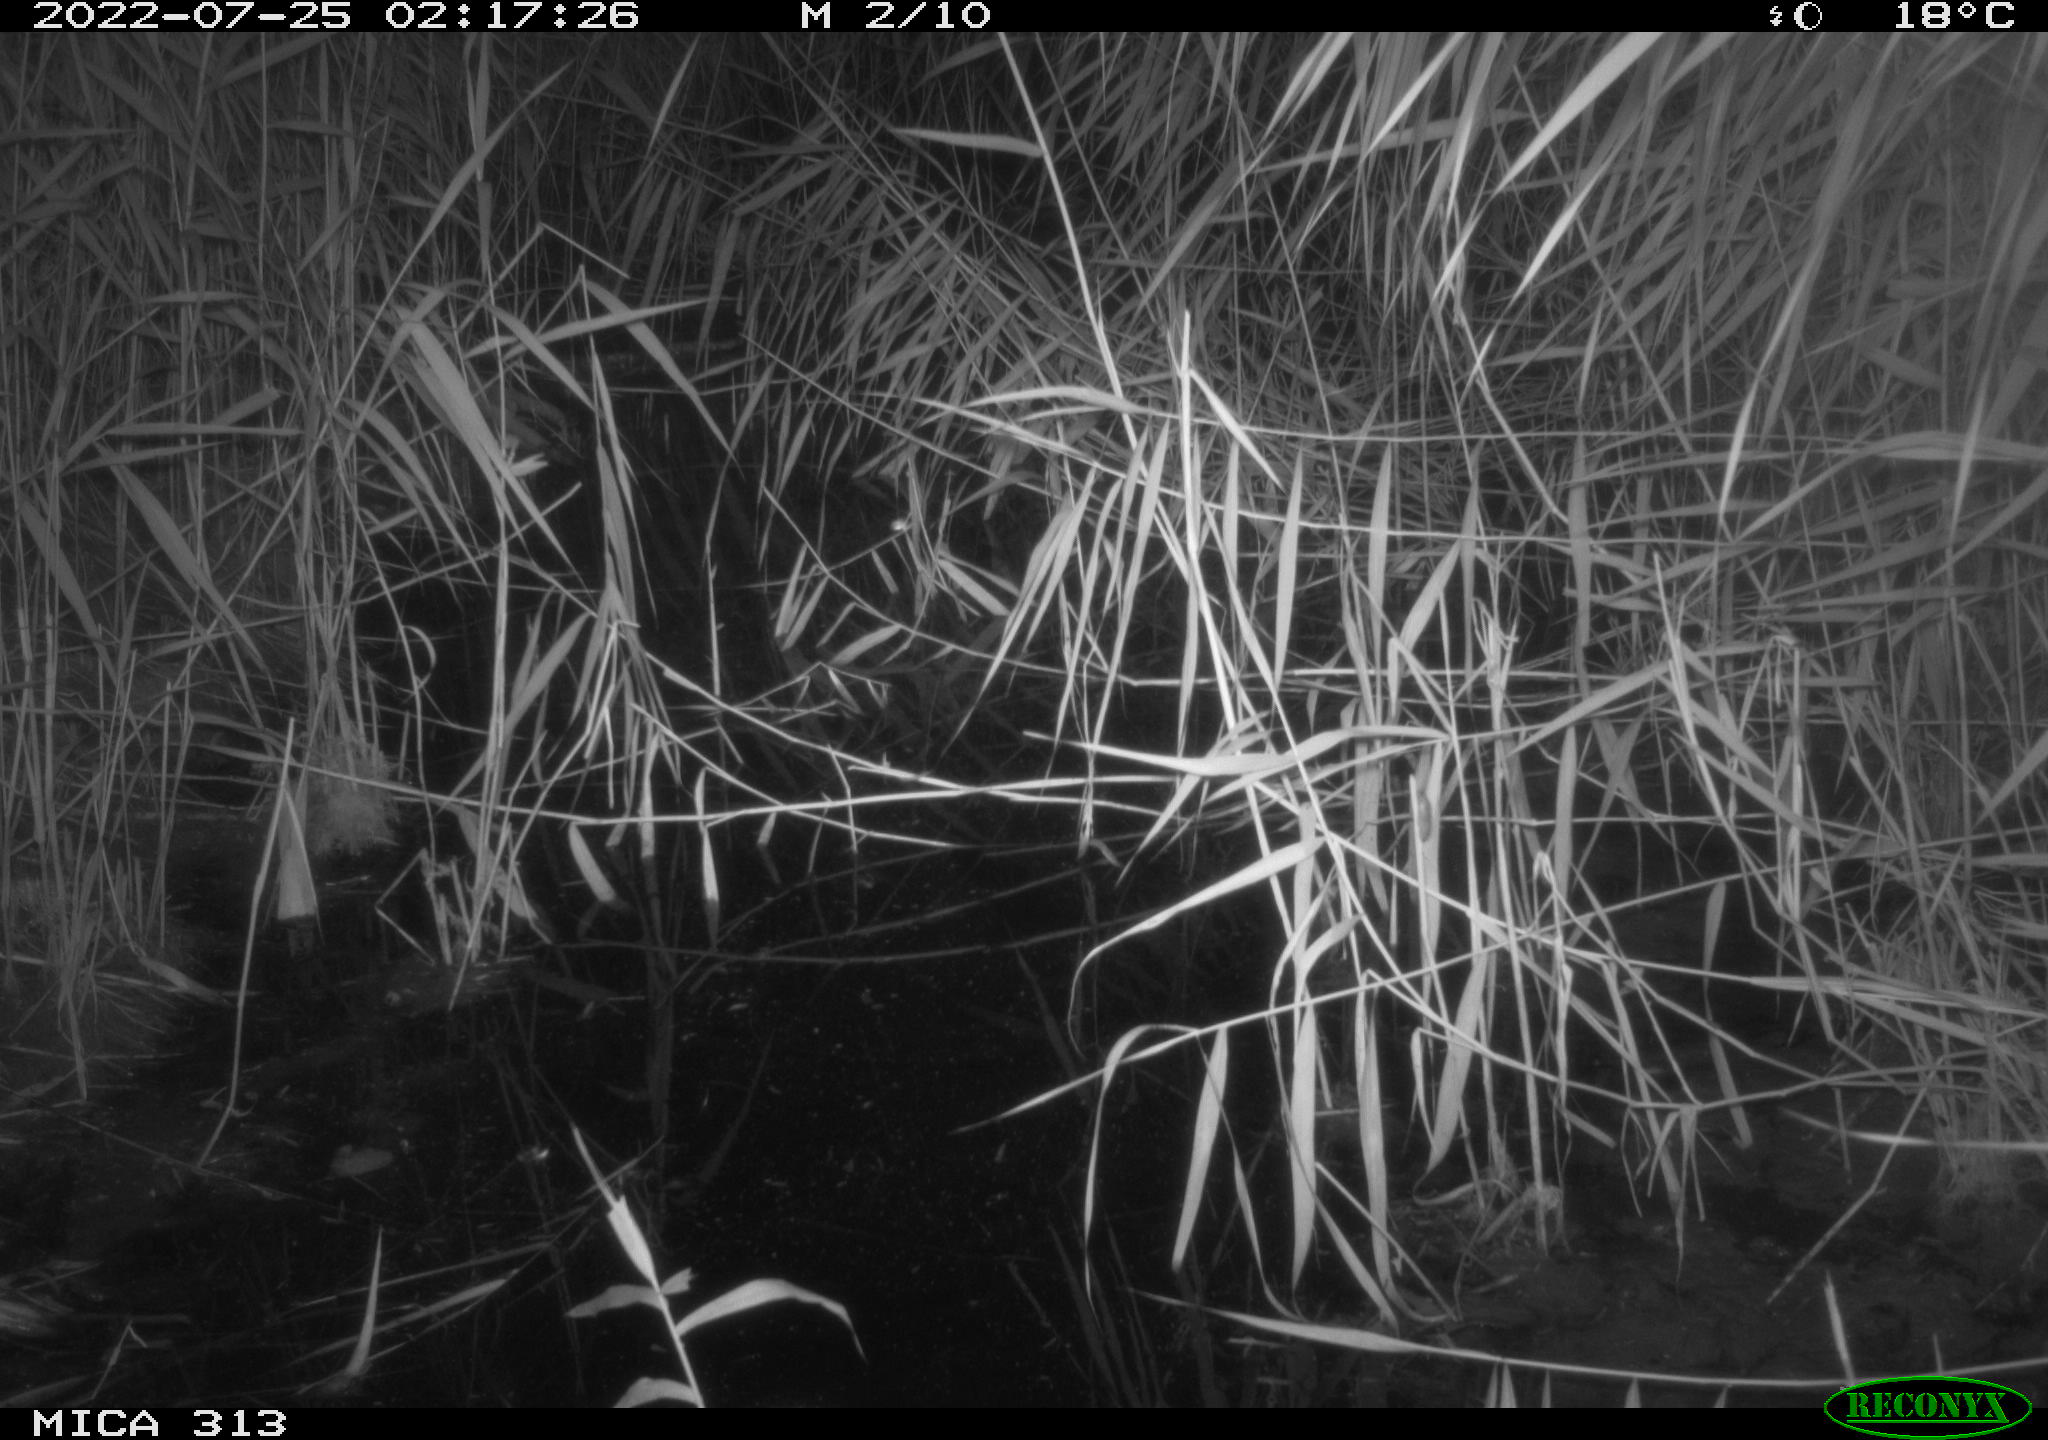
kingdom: Animalia
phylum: Chordata
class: Mammalia
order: Rodentia
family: Muridae
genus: Rattus
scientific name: Rattus norvegicus
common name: Brown rat
